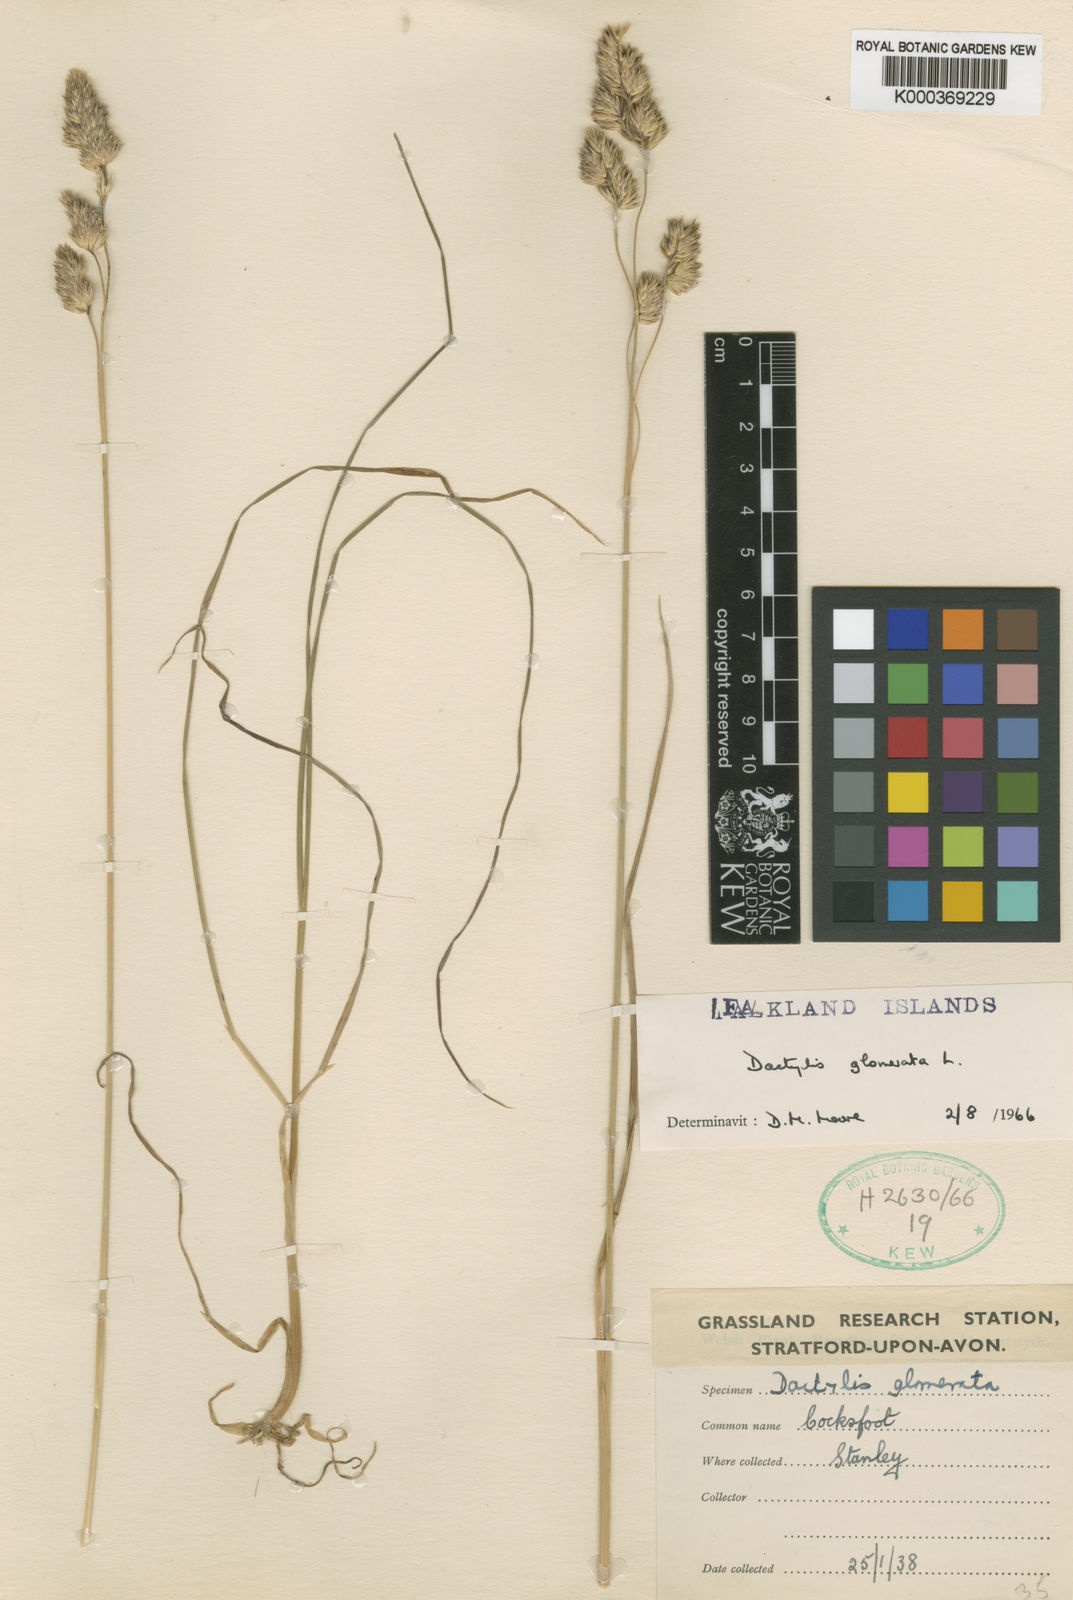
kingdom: Plantae
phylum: Tracheophyta
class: Liliopsida
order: Poales
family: Poaceae
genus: Dactylis
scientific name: Dactylis glomerata
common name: Orchardgrass
